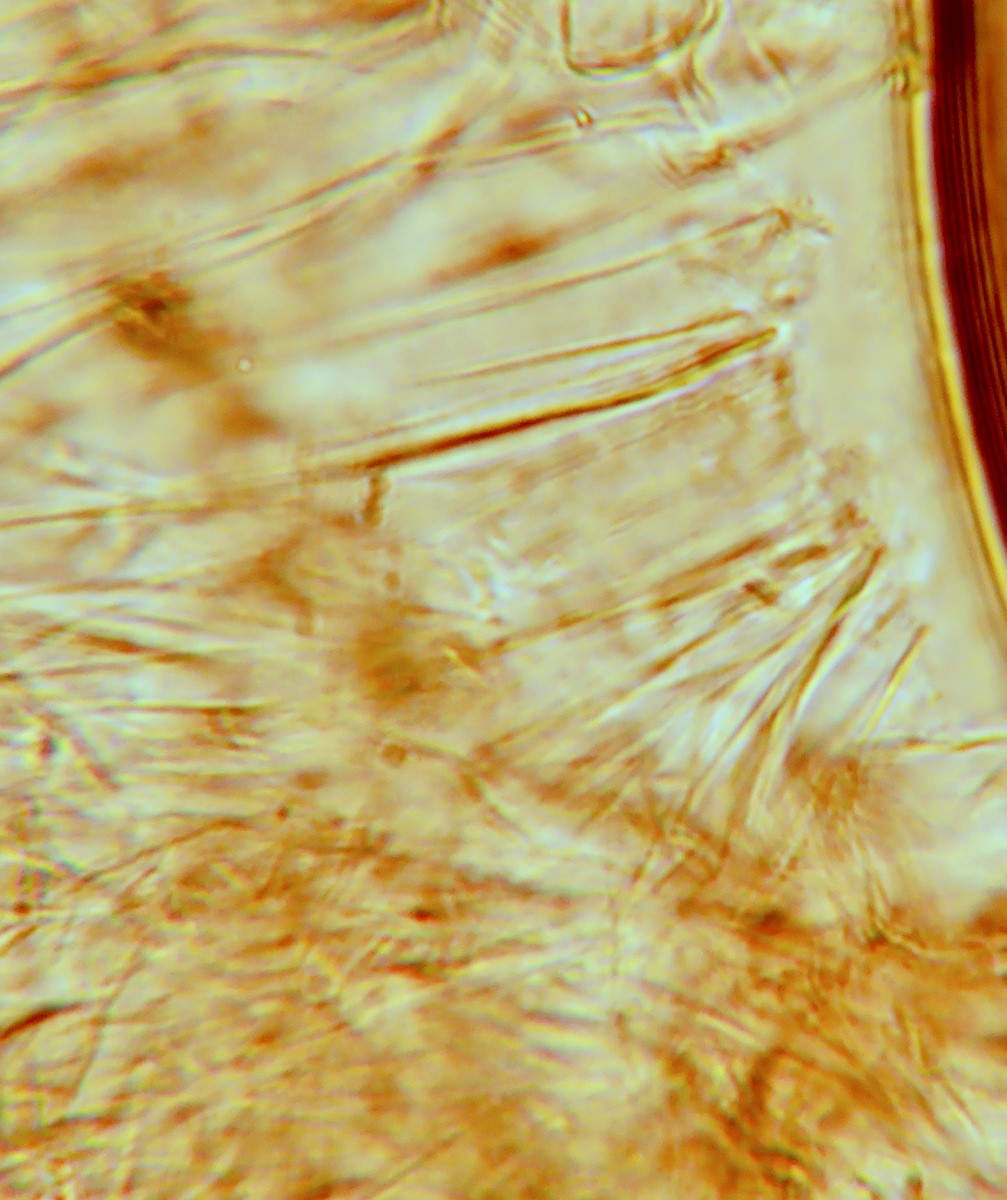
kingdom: Fungi
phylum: Basidiomycota
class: Agaricomycetes
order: Agaricales
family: Bolbitiaceae
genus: Conocybe
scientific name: Conocybe
